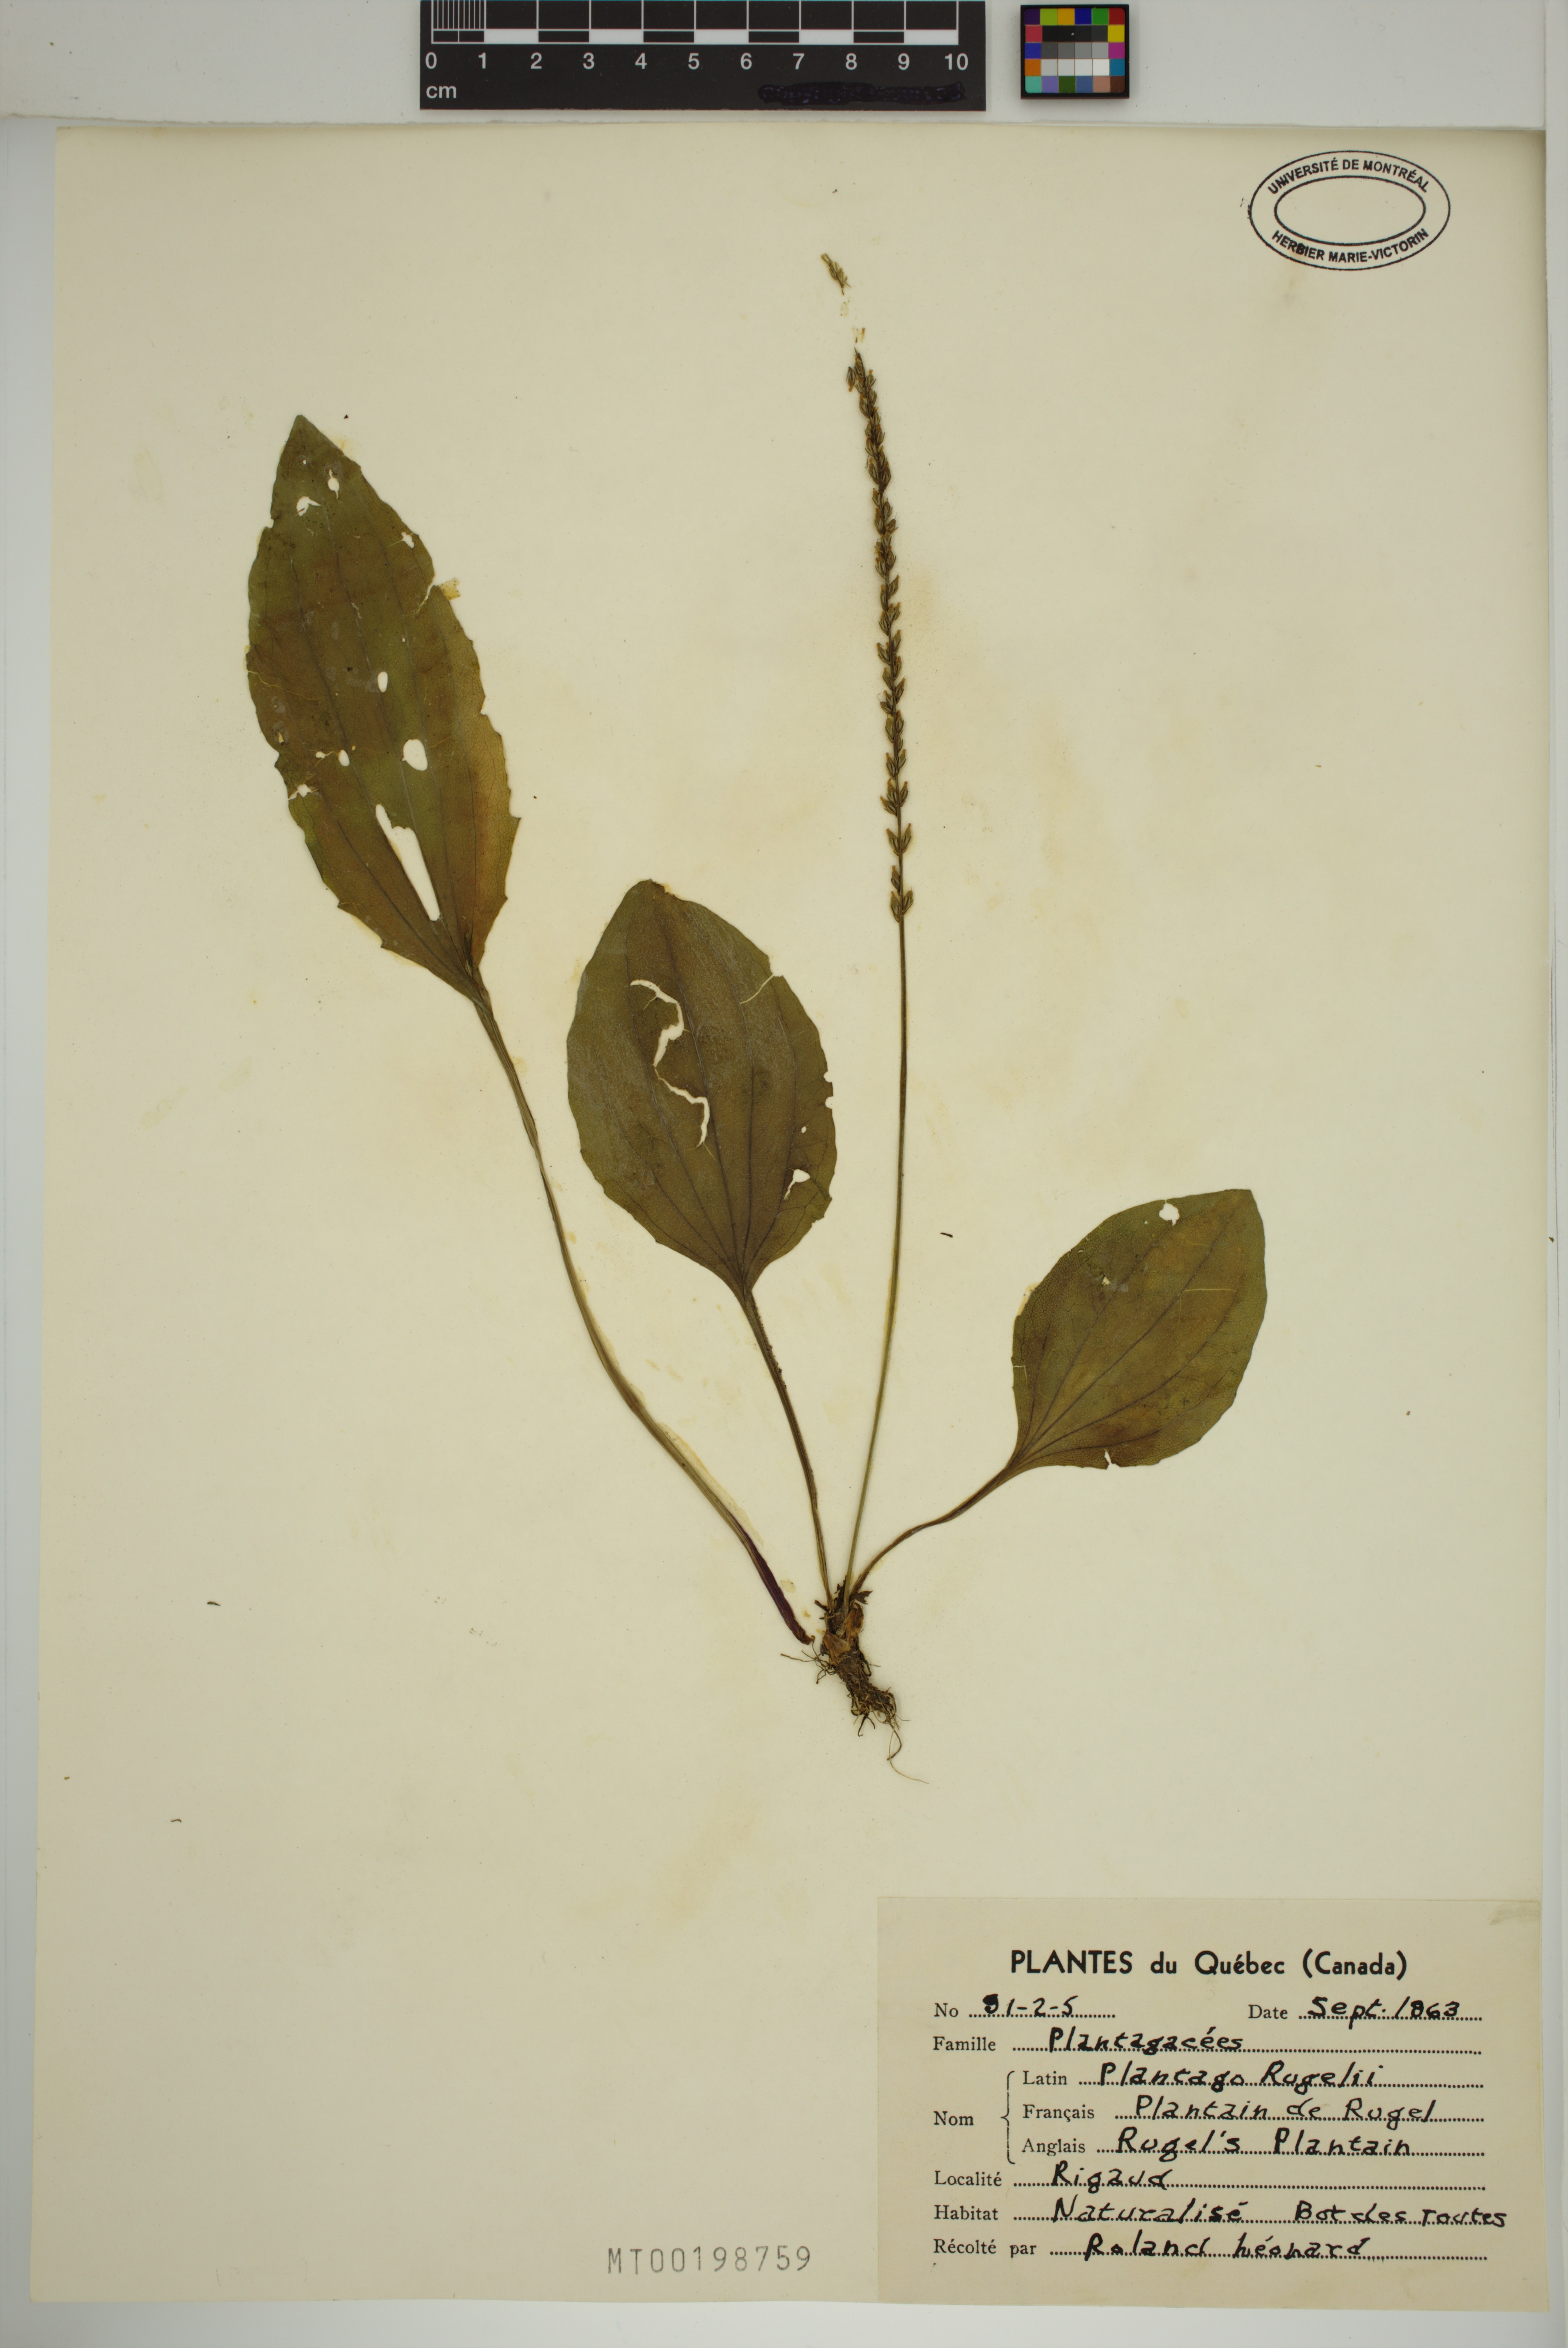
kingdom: Plantae
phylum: Tracheophyta
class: Magnoliopsida
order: Lamiales
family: Plantaginaceae
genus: Plantago
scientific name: Plantago rugelii
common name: American plantain
